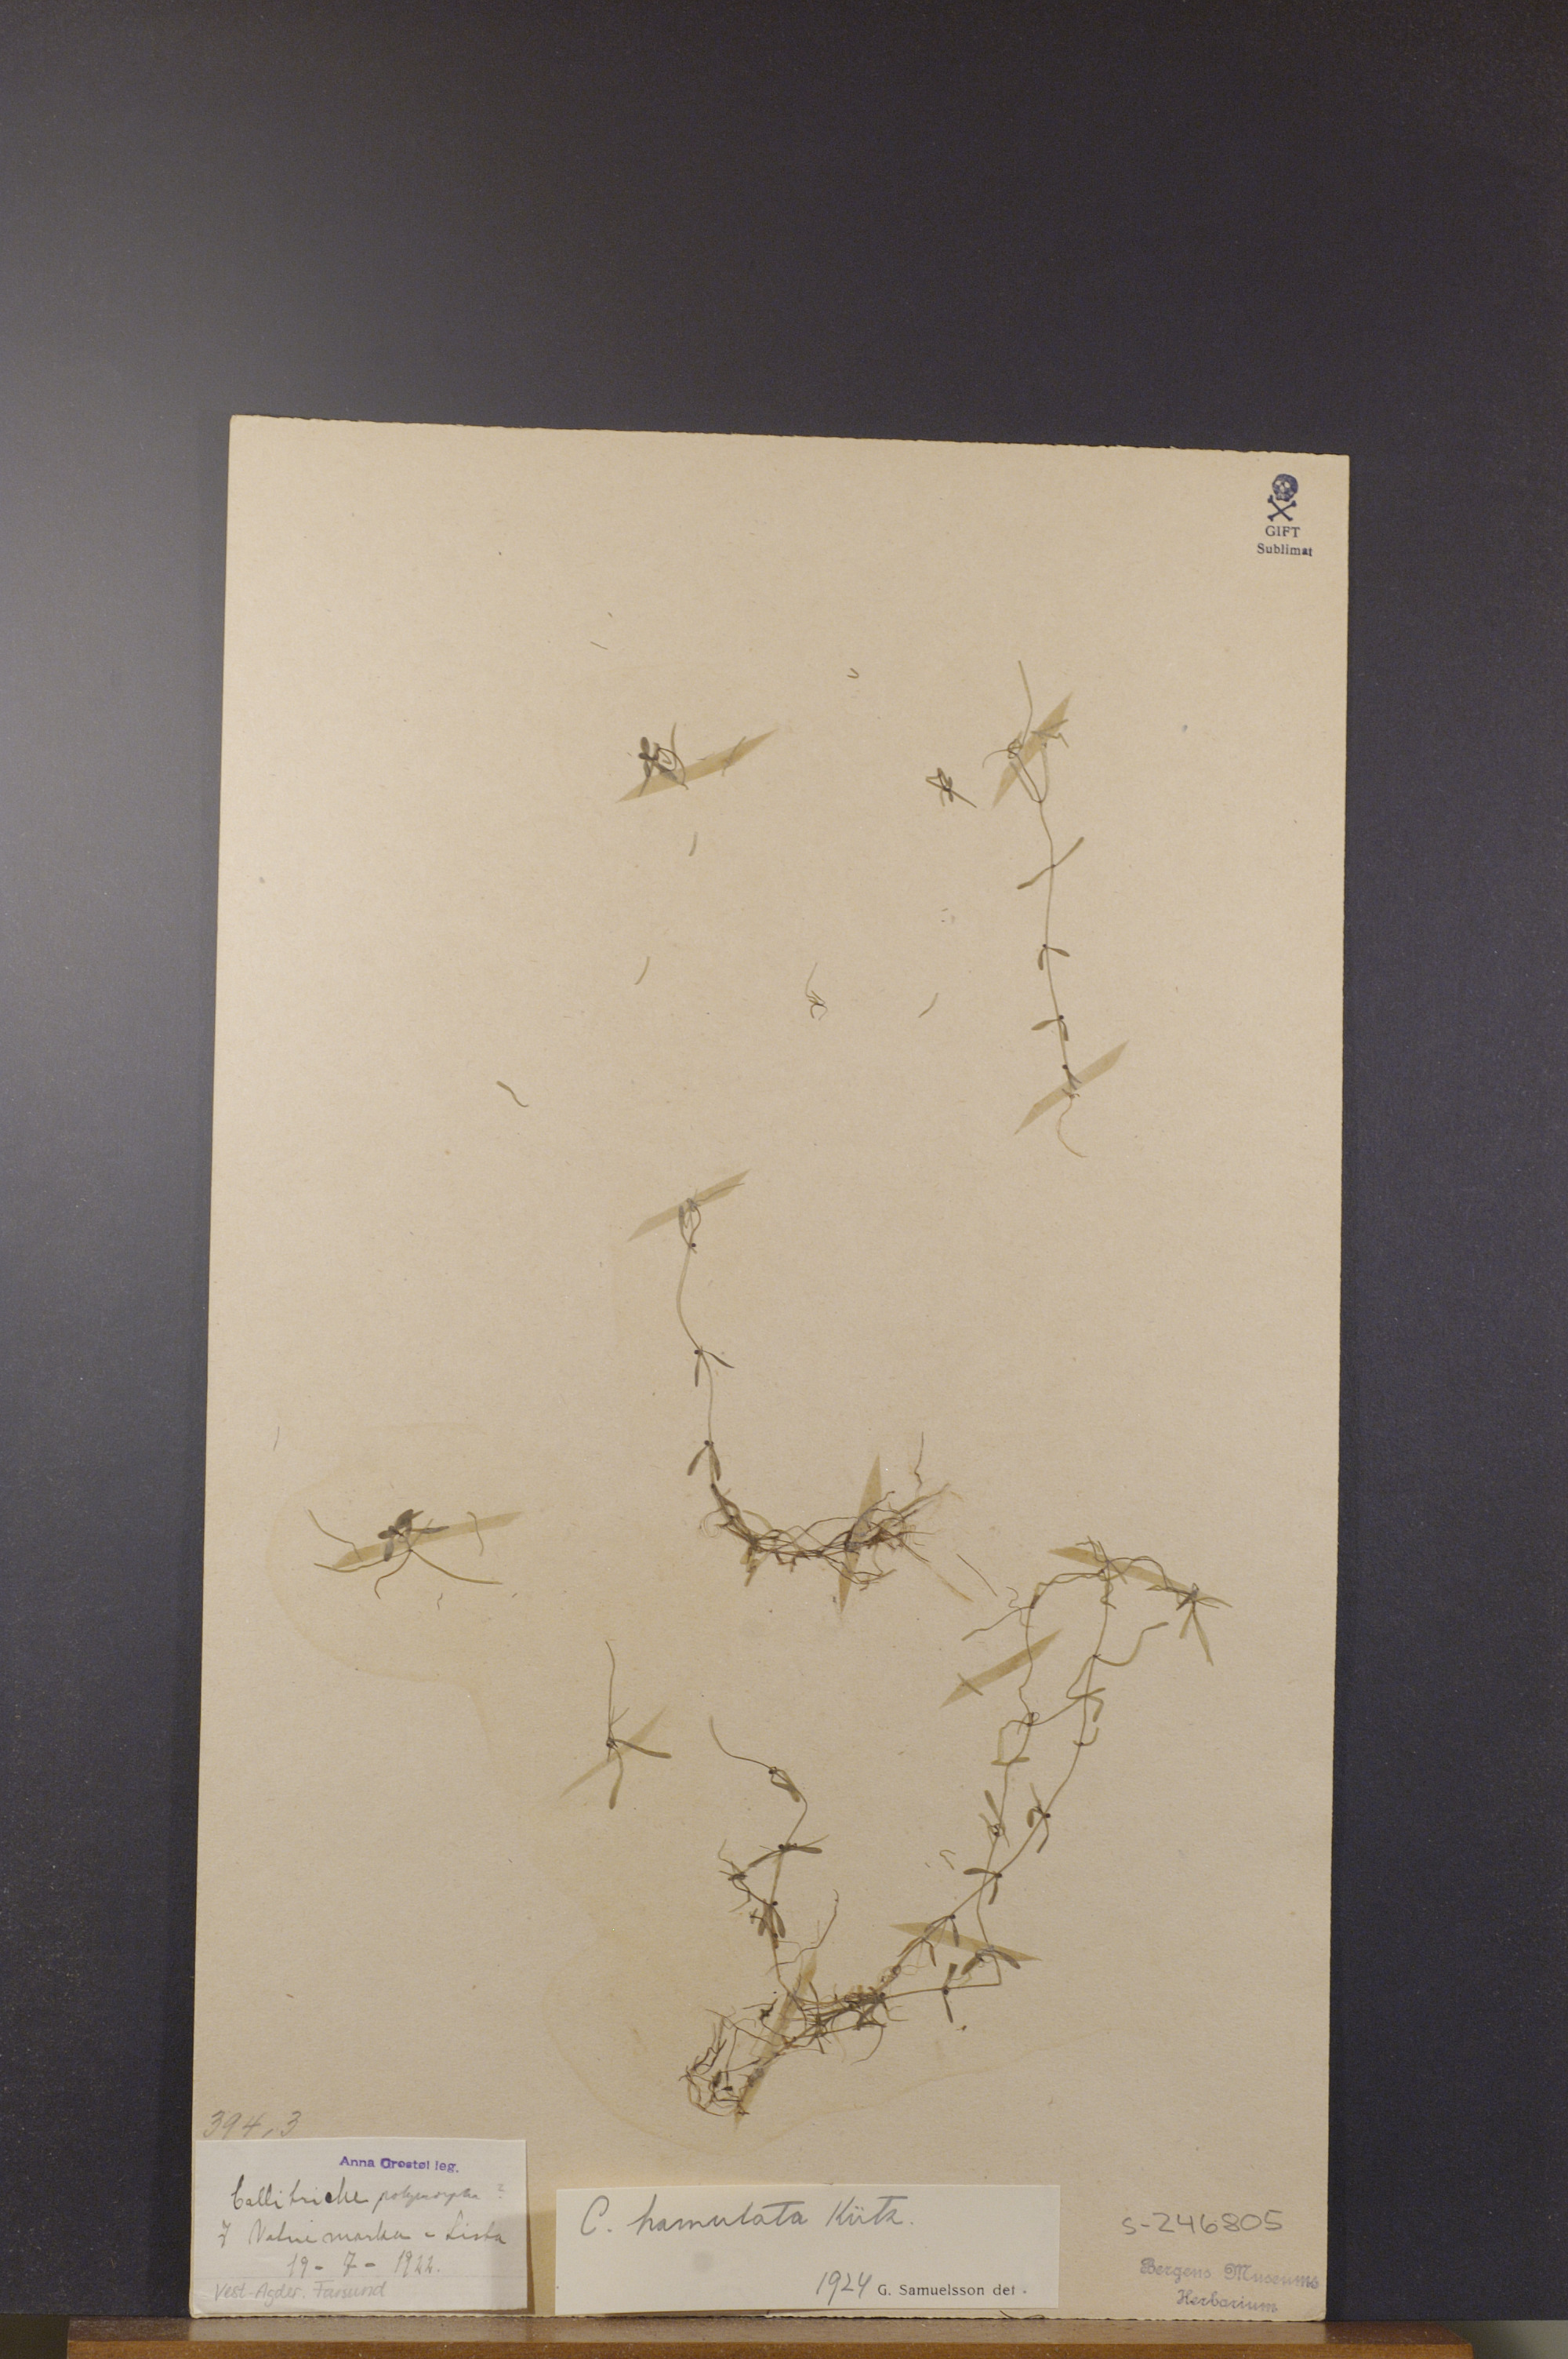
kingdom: Plantae
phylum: Tracheophyta
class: Magnoliopsida
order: Lamiales
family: Plantaginaceae
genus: Callitriche
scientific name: Callitriche hamulata
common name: Intermediate water-starwort
